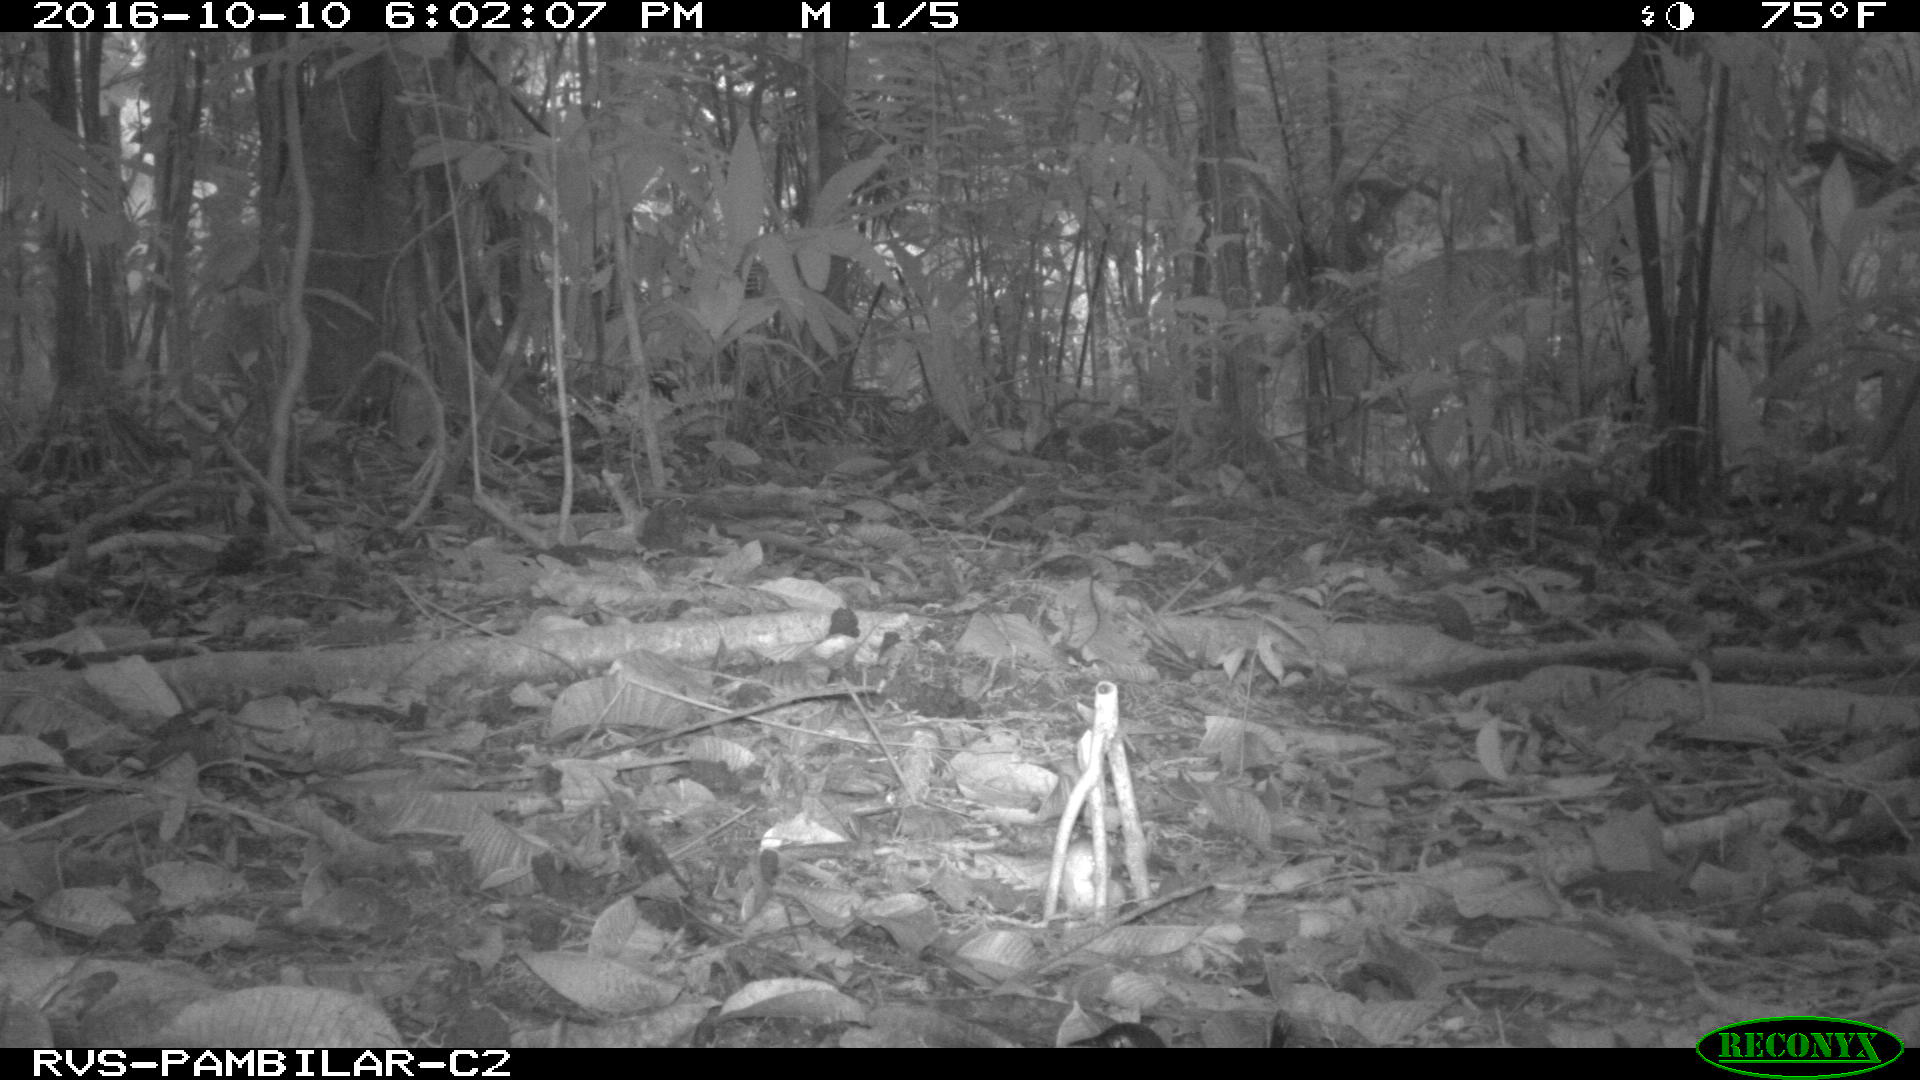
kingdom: Animalia
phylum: Chordata
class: Aves
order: Columbiformes
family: Columbidae
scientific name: Columbidae
